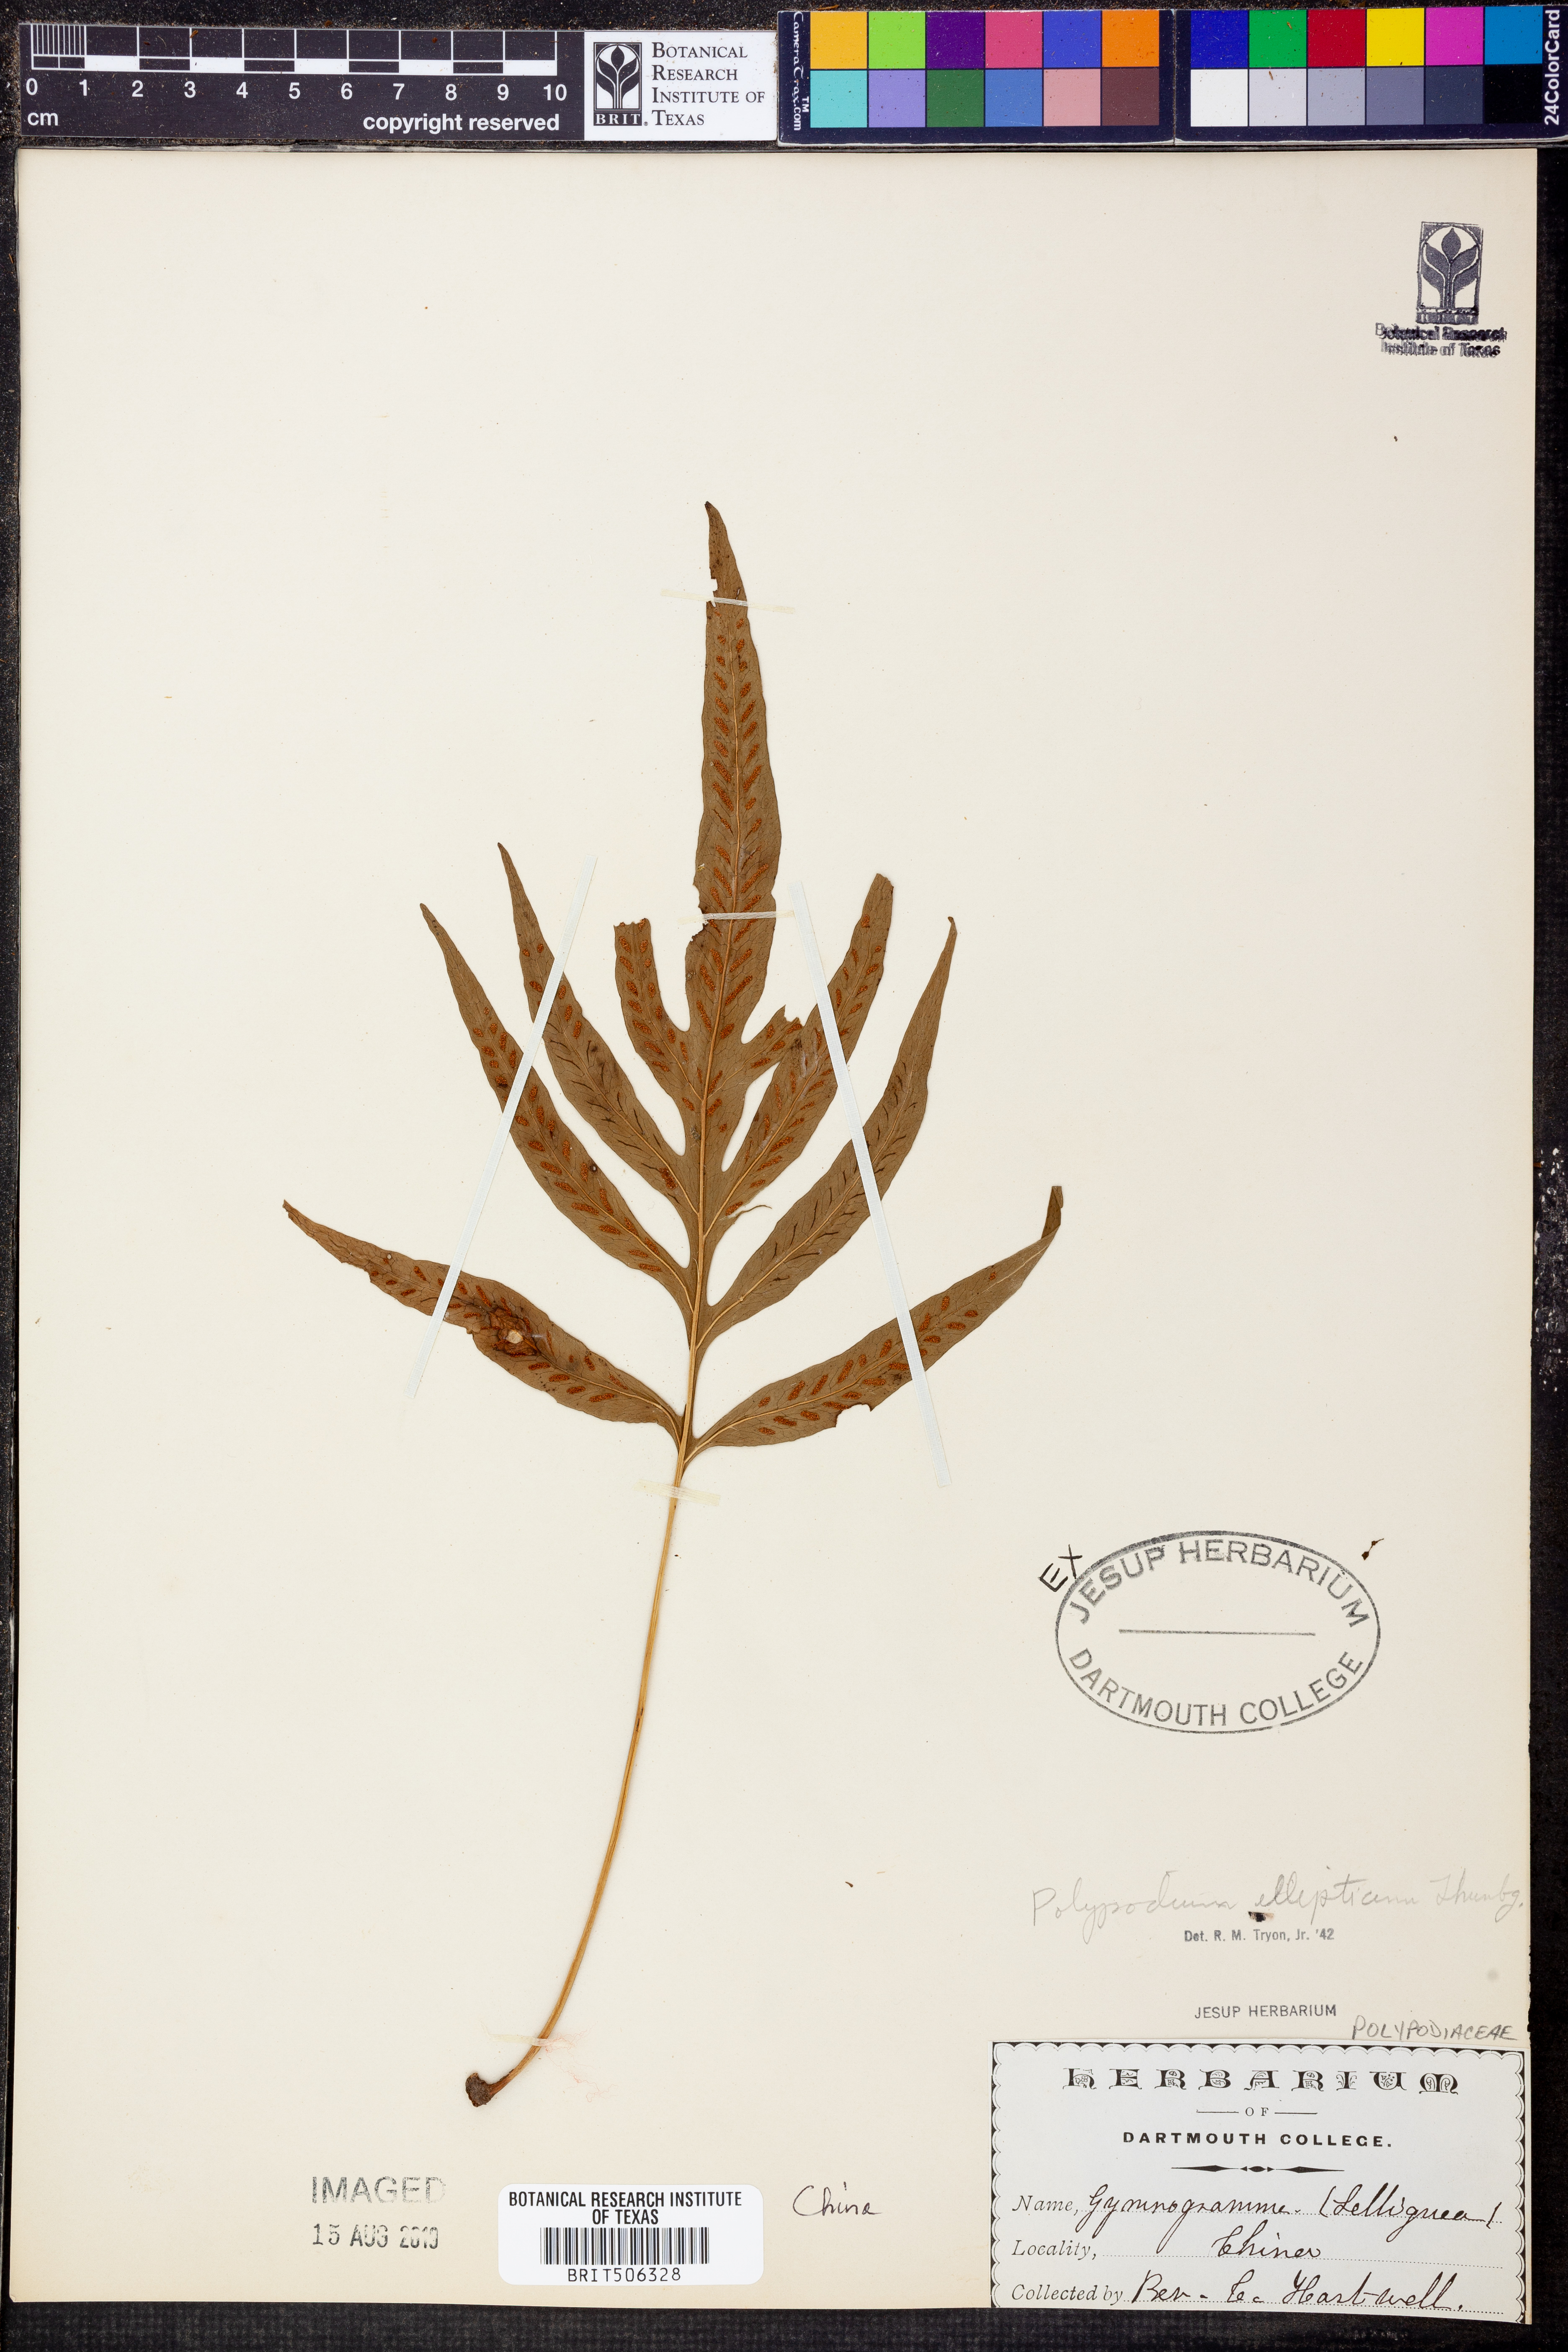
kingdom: Plantae
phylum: Tracheophyta
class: Polypodiopsida
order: Polypodiales
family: Polypodiaceae
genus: Leptochilus
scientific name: Leptochilus ellipticus
